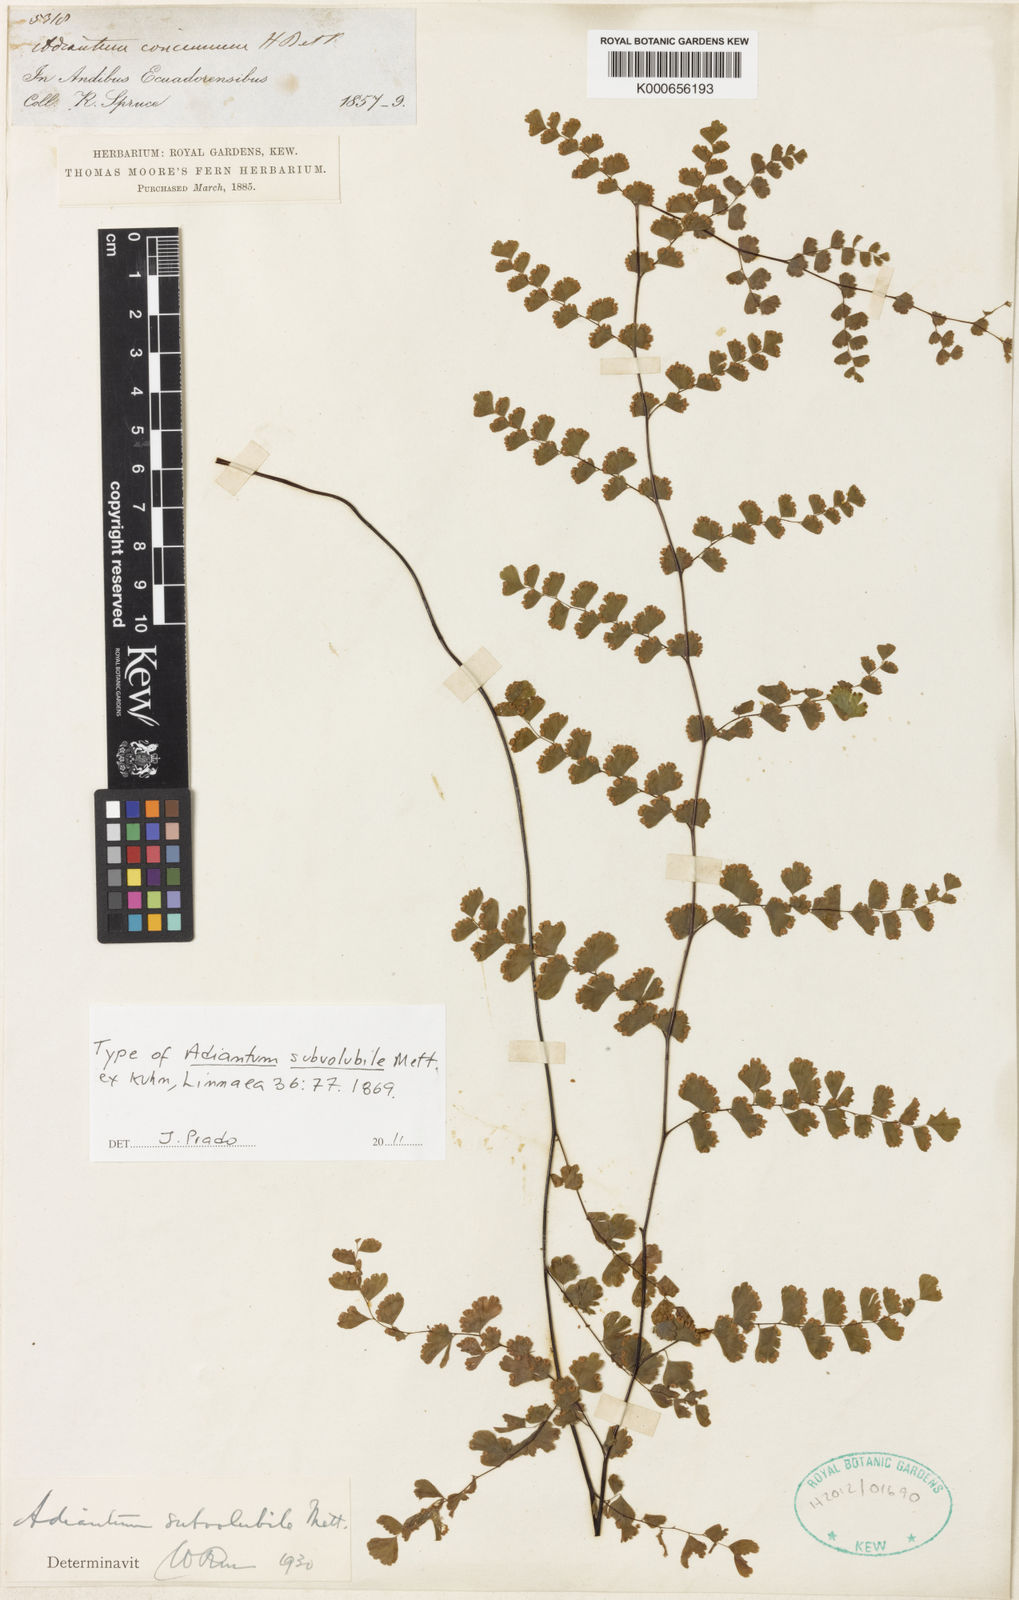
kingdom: Plantae
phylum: Tracheophyta
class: Polypodiopsida
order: Polypodiales
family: Pteridaceae
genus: Adiantum
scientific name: Adiantum
